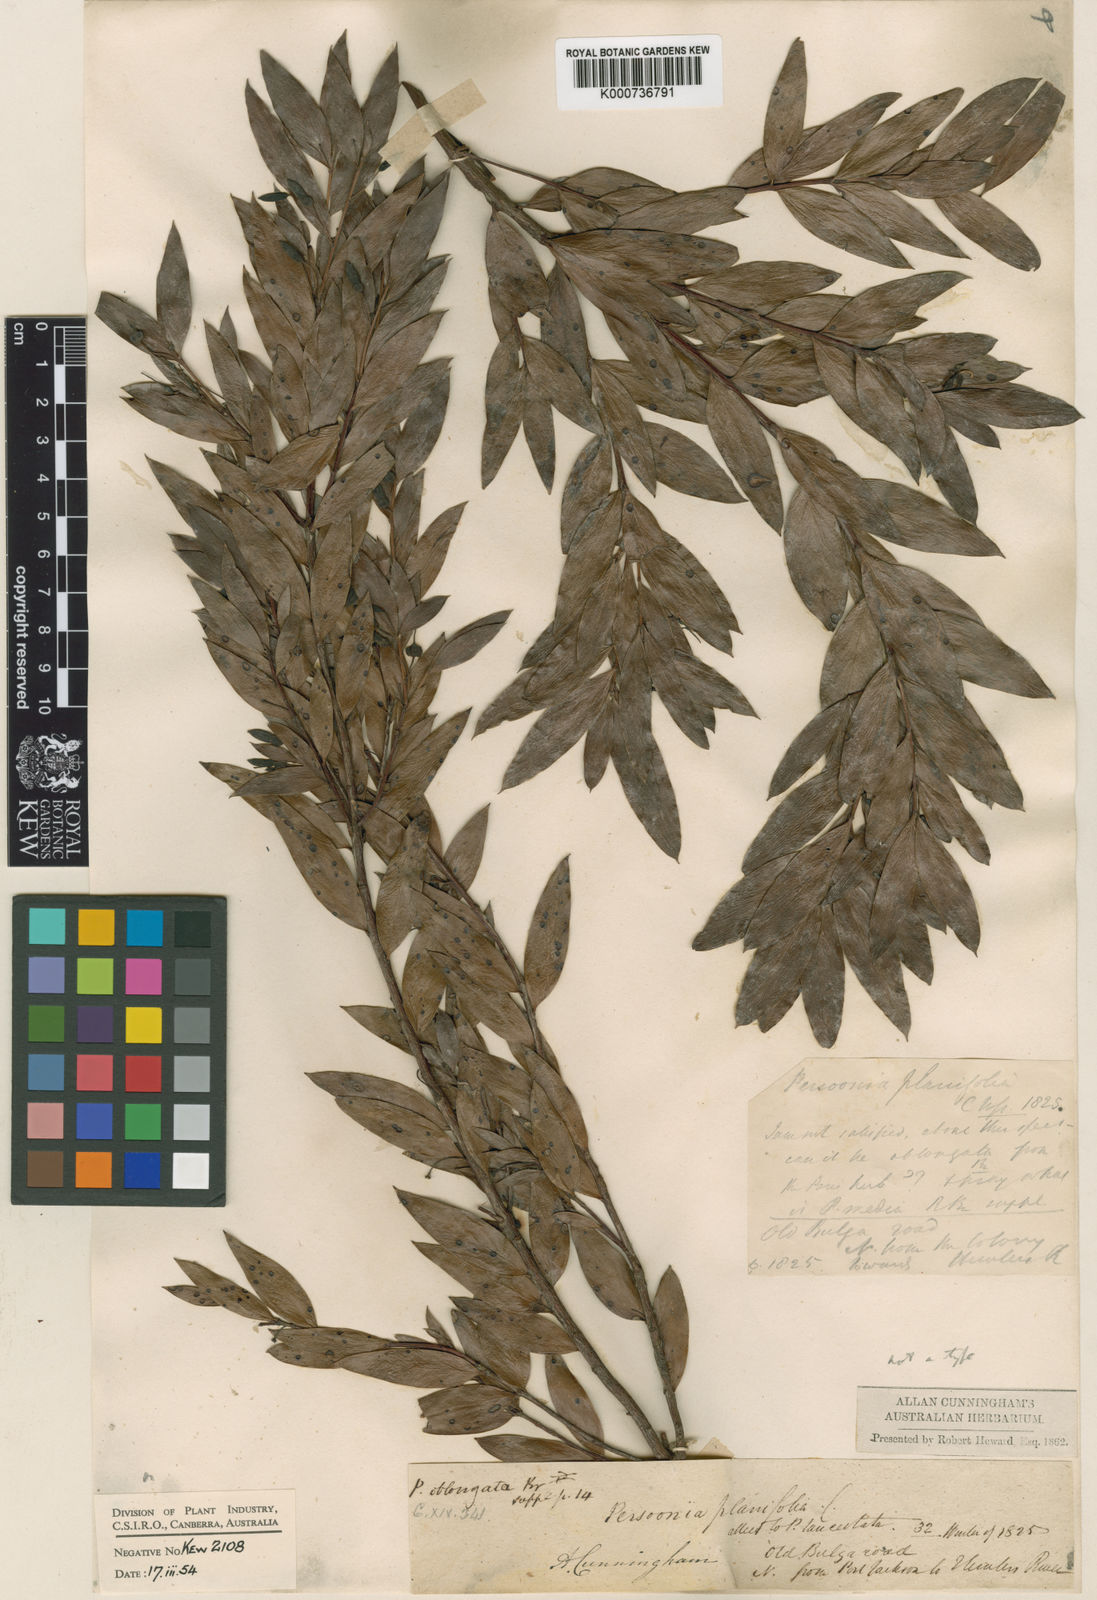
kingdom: Plantae
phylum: Tracheophyta
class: Magnoliopsida
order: Proteales
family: Proteaceae
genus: Persoonia
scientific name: Persoonia oblongata
